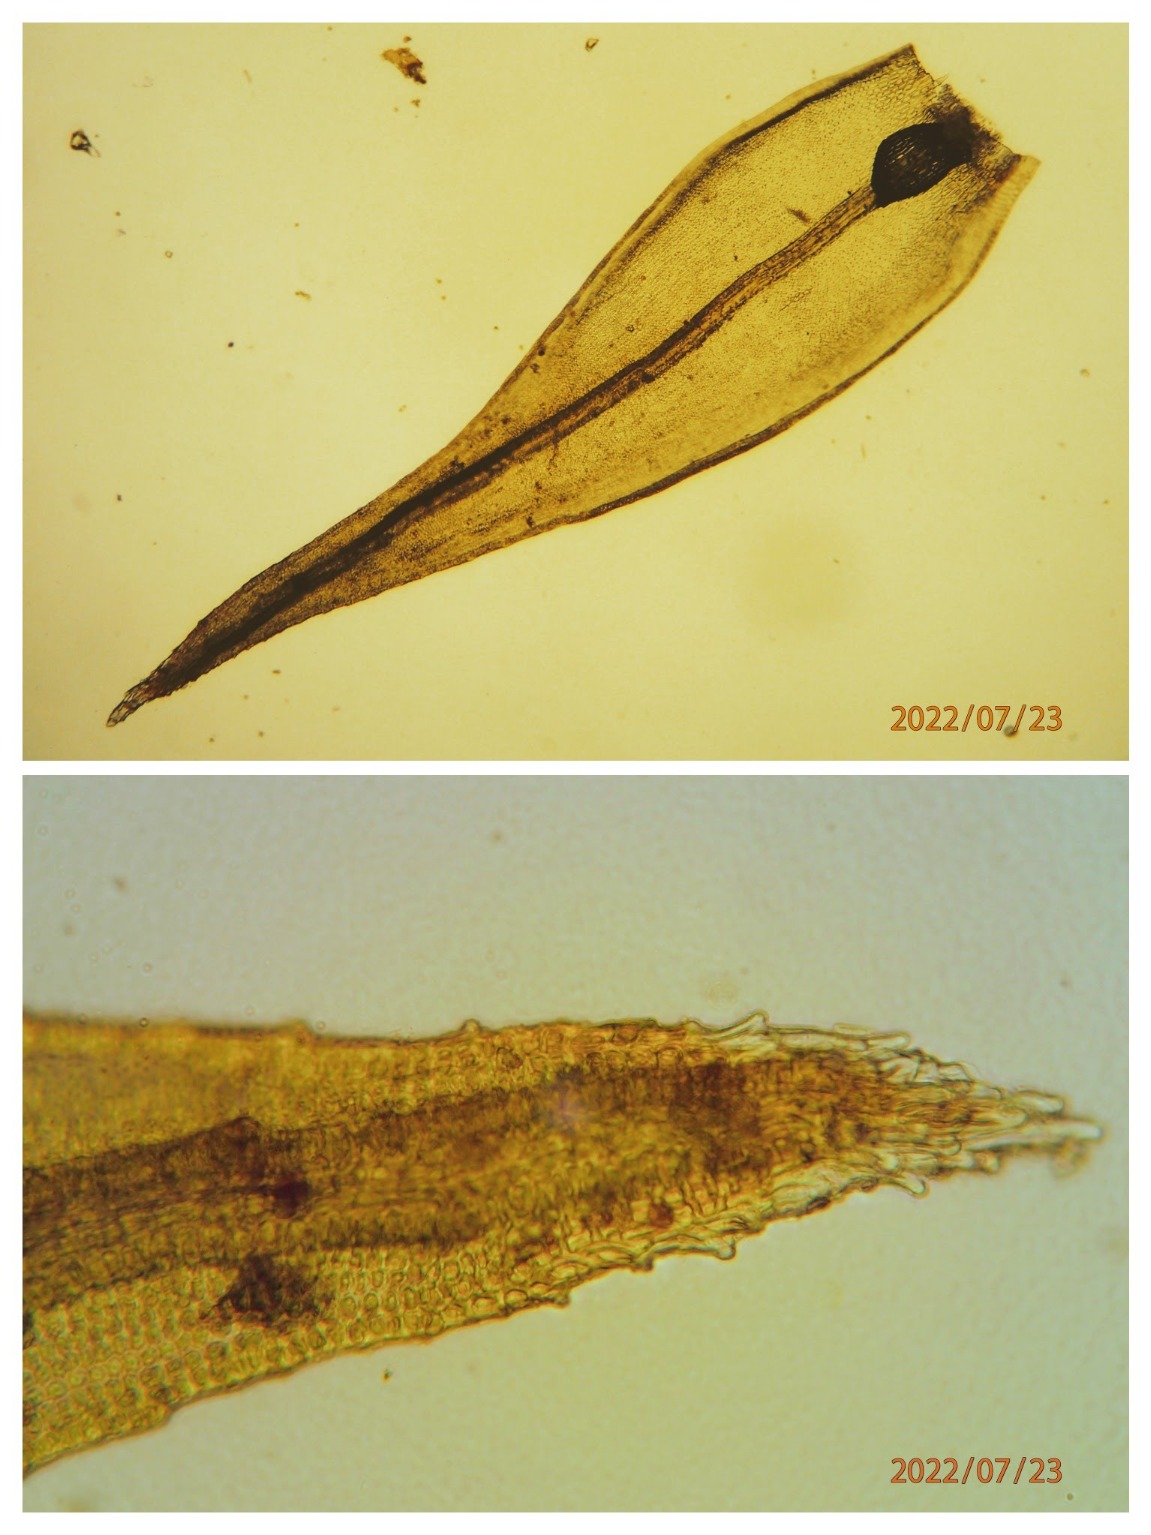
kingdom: Plantae
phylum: Bryophyta
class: Bryopsida
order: Grimmiales
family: Grimmiaceae
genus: Schistidium
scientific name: Schistidium
